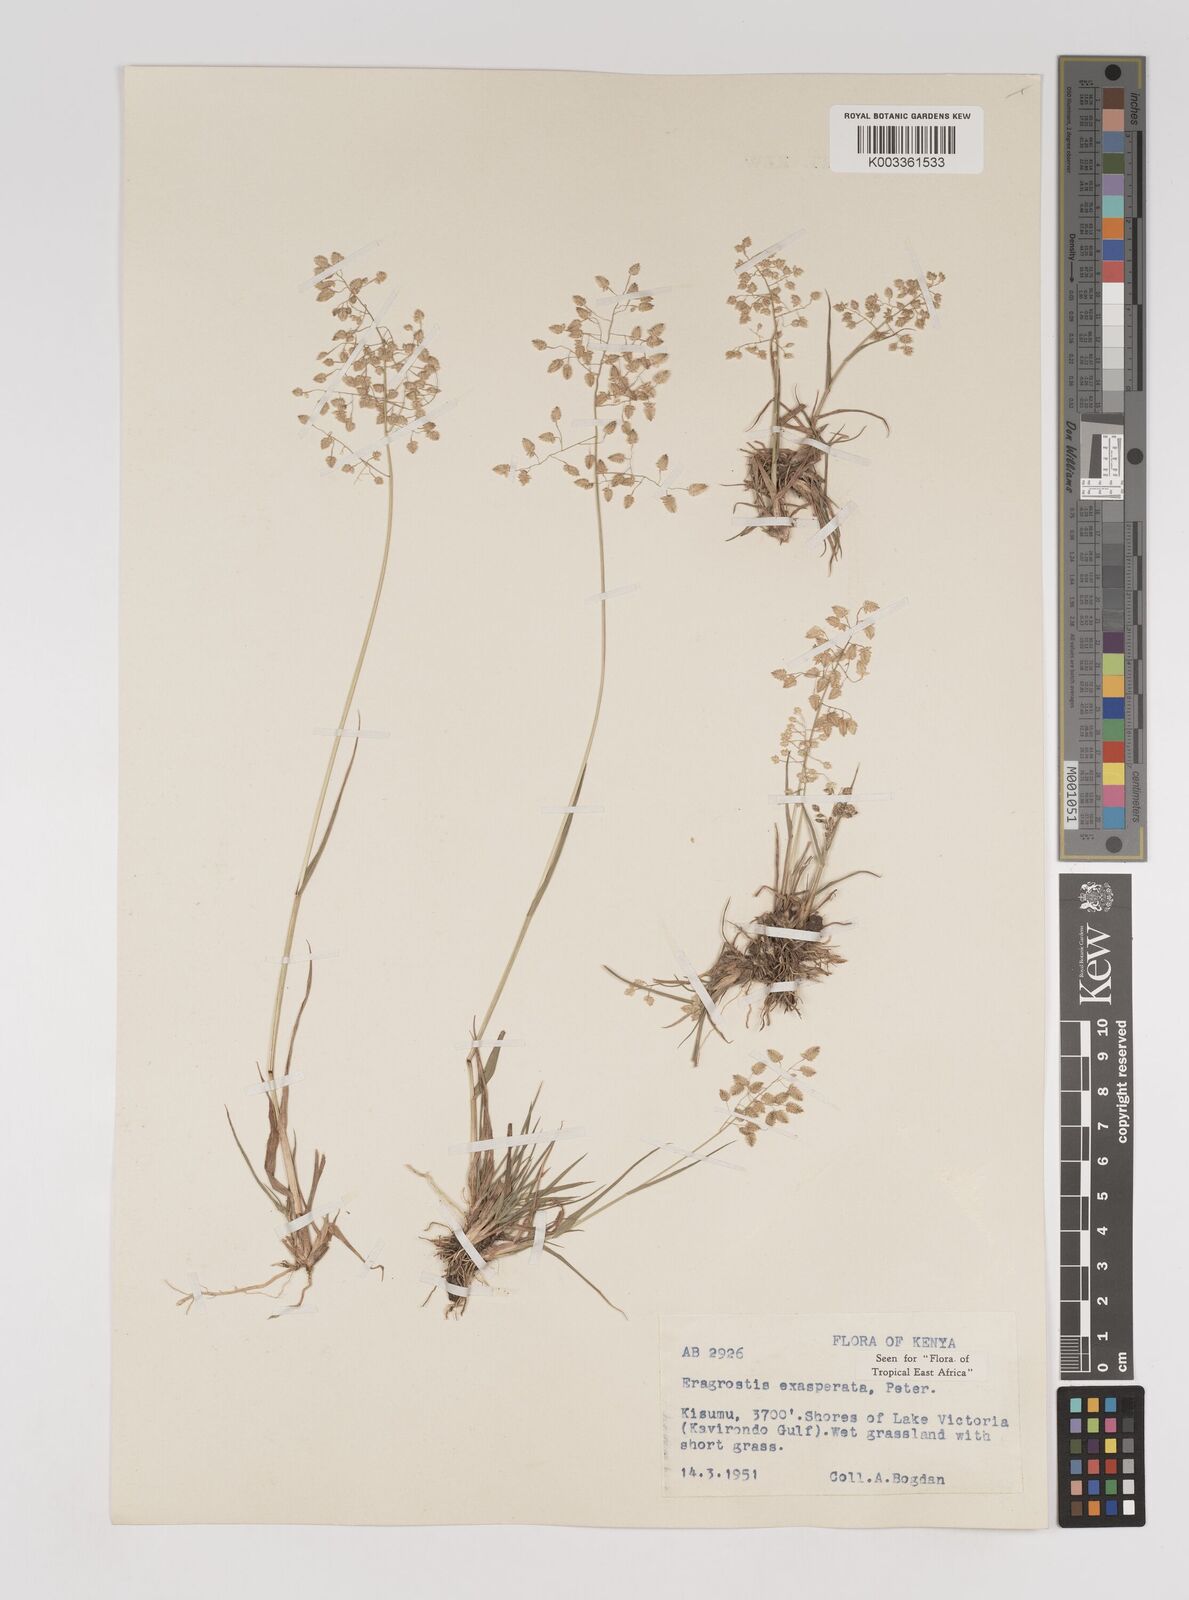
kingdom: Plantae
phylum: Tracheophyta
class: Liliopsida
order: Poales
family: Poaceae
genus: Eragrostis
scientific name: Eragrostis exasperata
